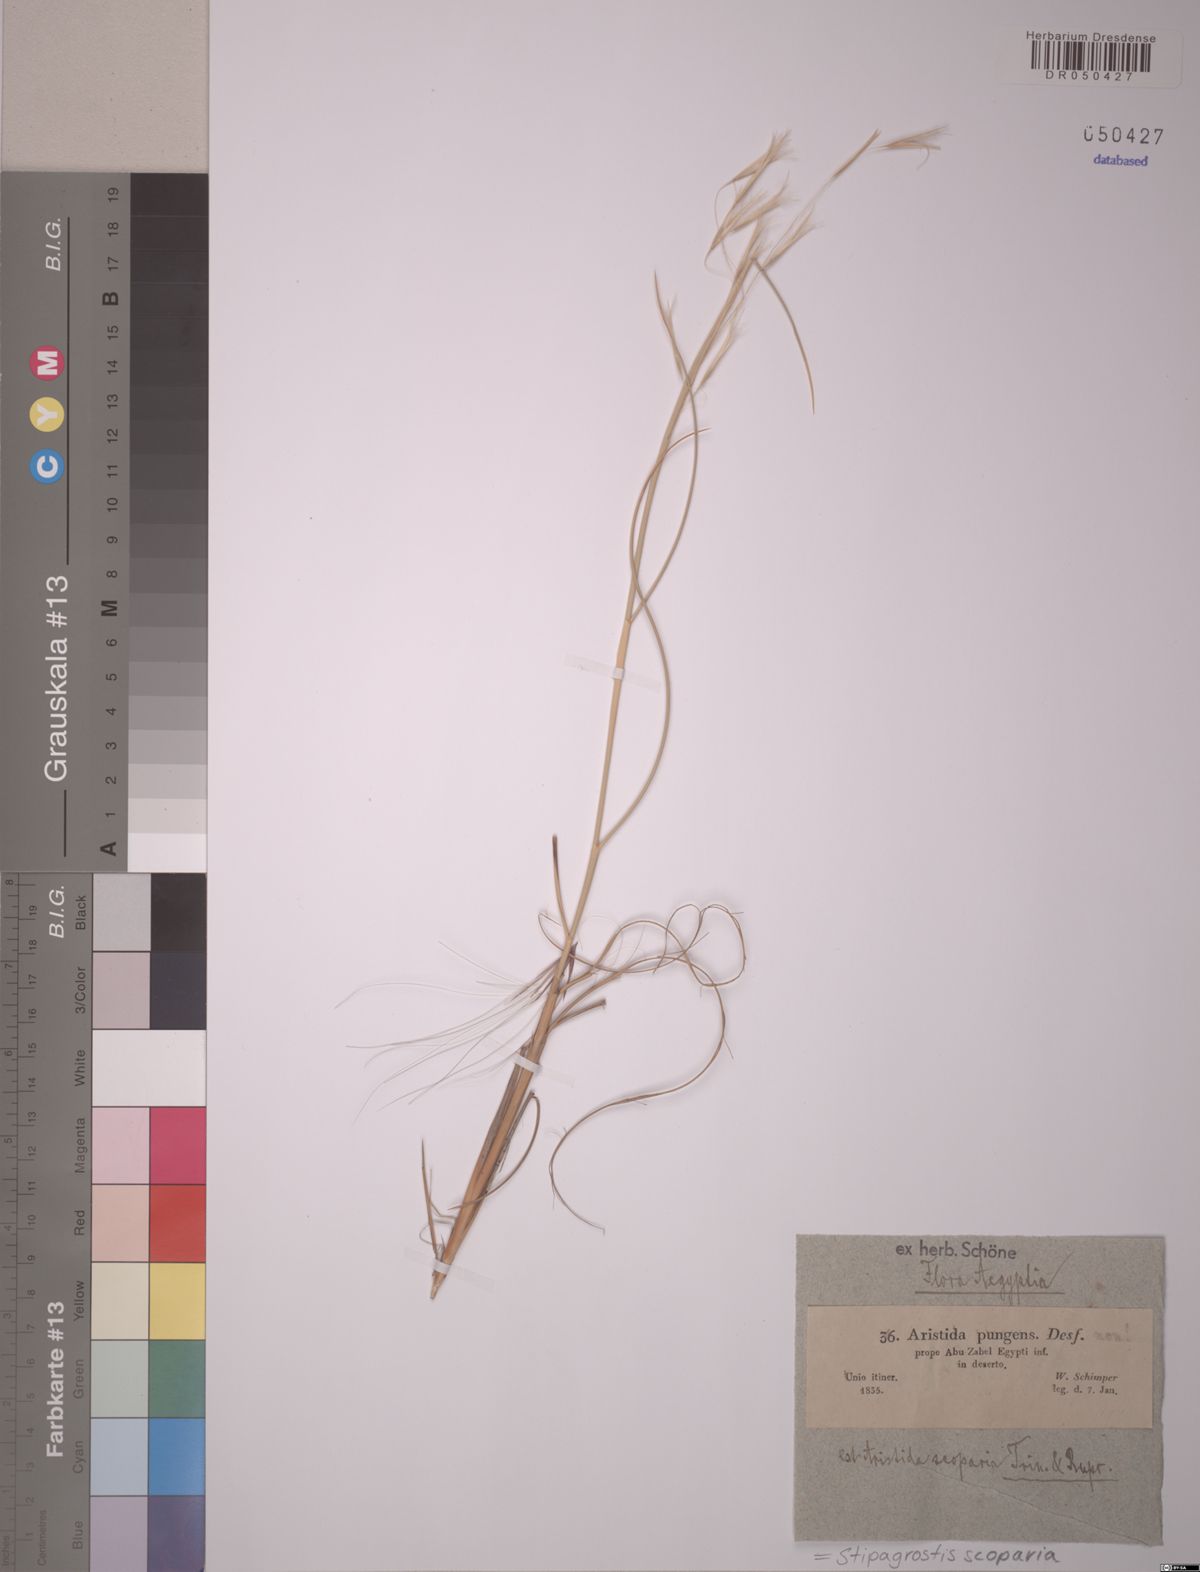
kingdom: Plantae
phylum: Tracheophyta
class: Liliopsida
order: Poales
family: Poaceae
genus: Stipagrostis
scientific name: Stipagrostis scoparia
